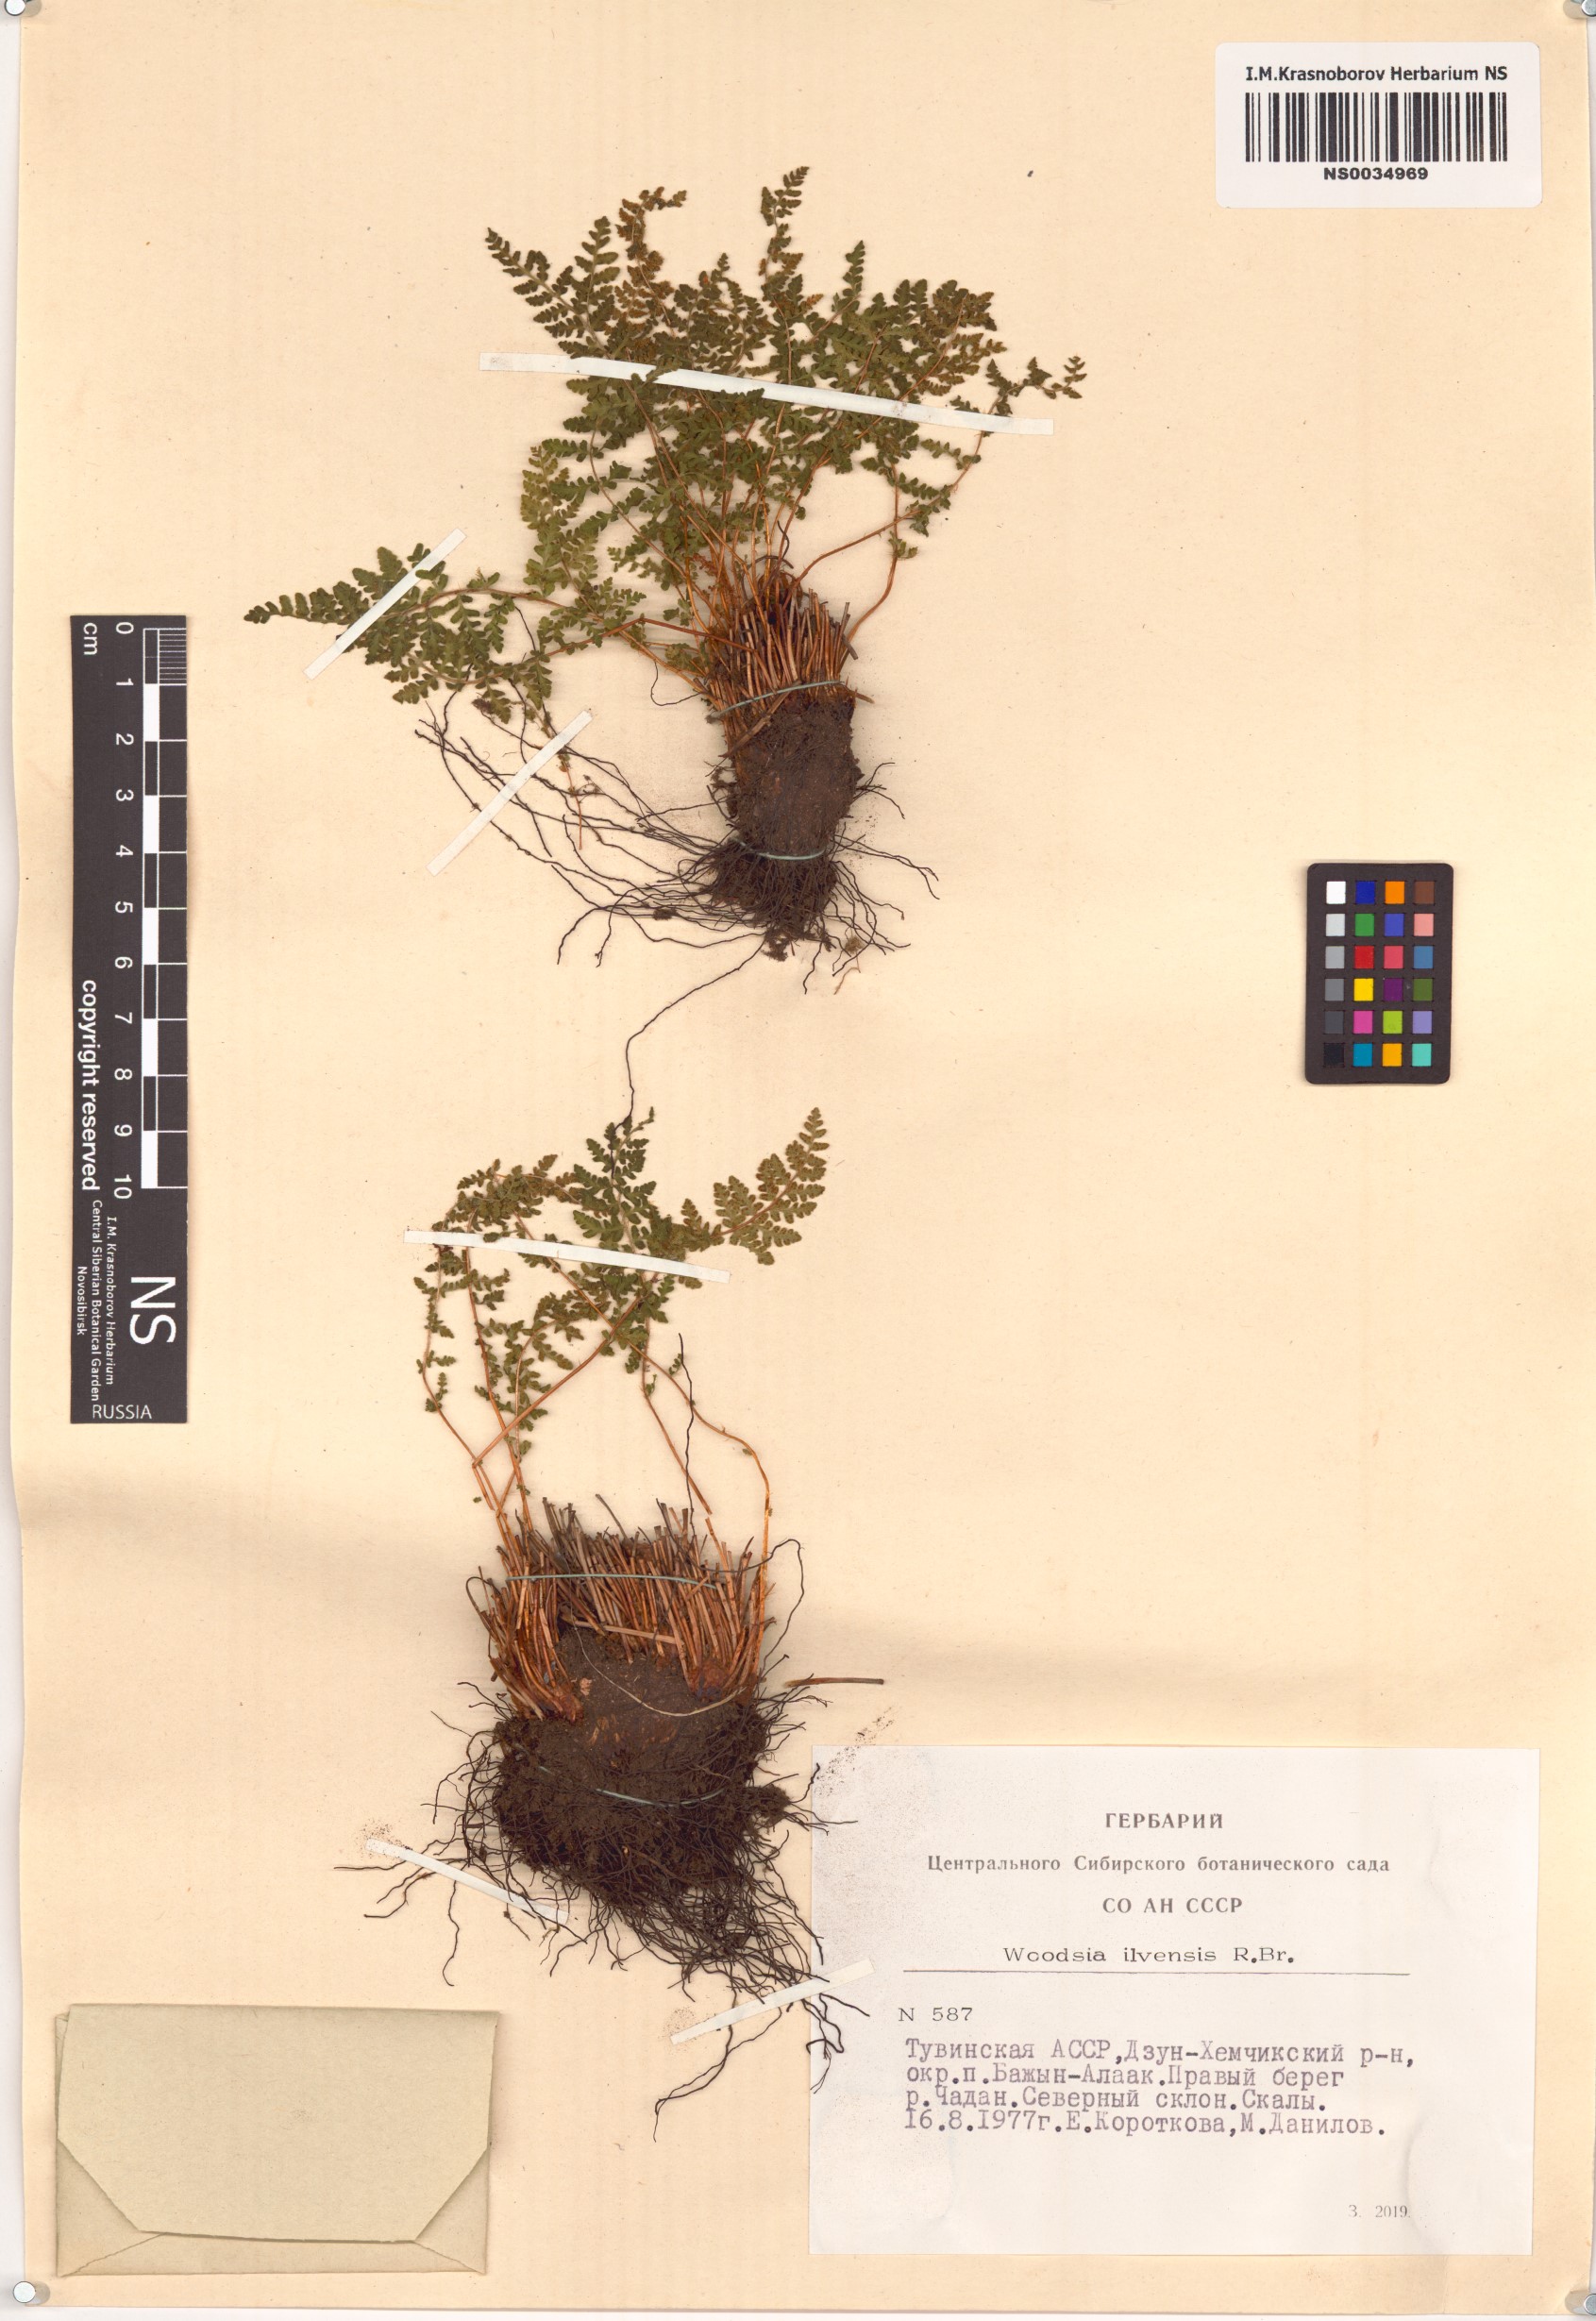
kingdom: Plantae
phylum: Tracheophyta
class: Polypodiopsida
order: Polypodiales
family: Woodsiaceae
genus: Woodsia
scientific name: Woodsia ilvensis
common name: Fragrant woodsia
